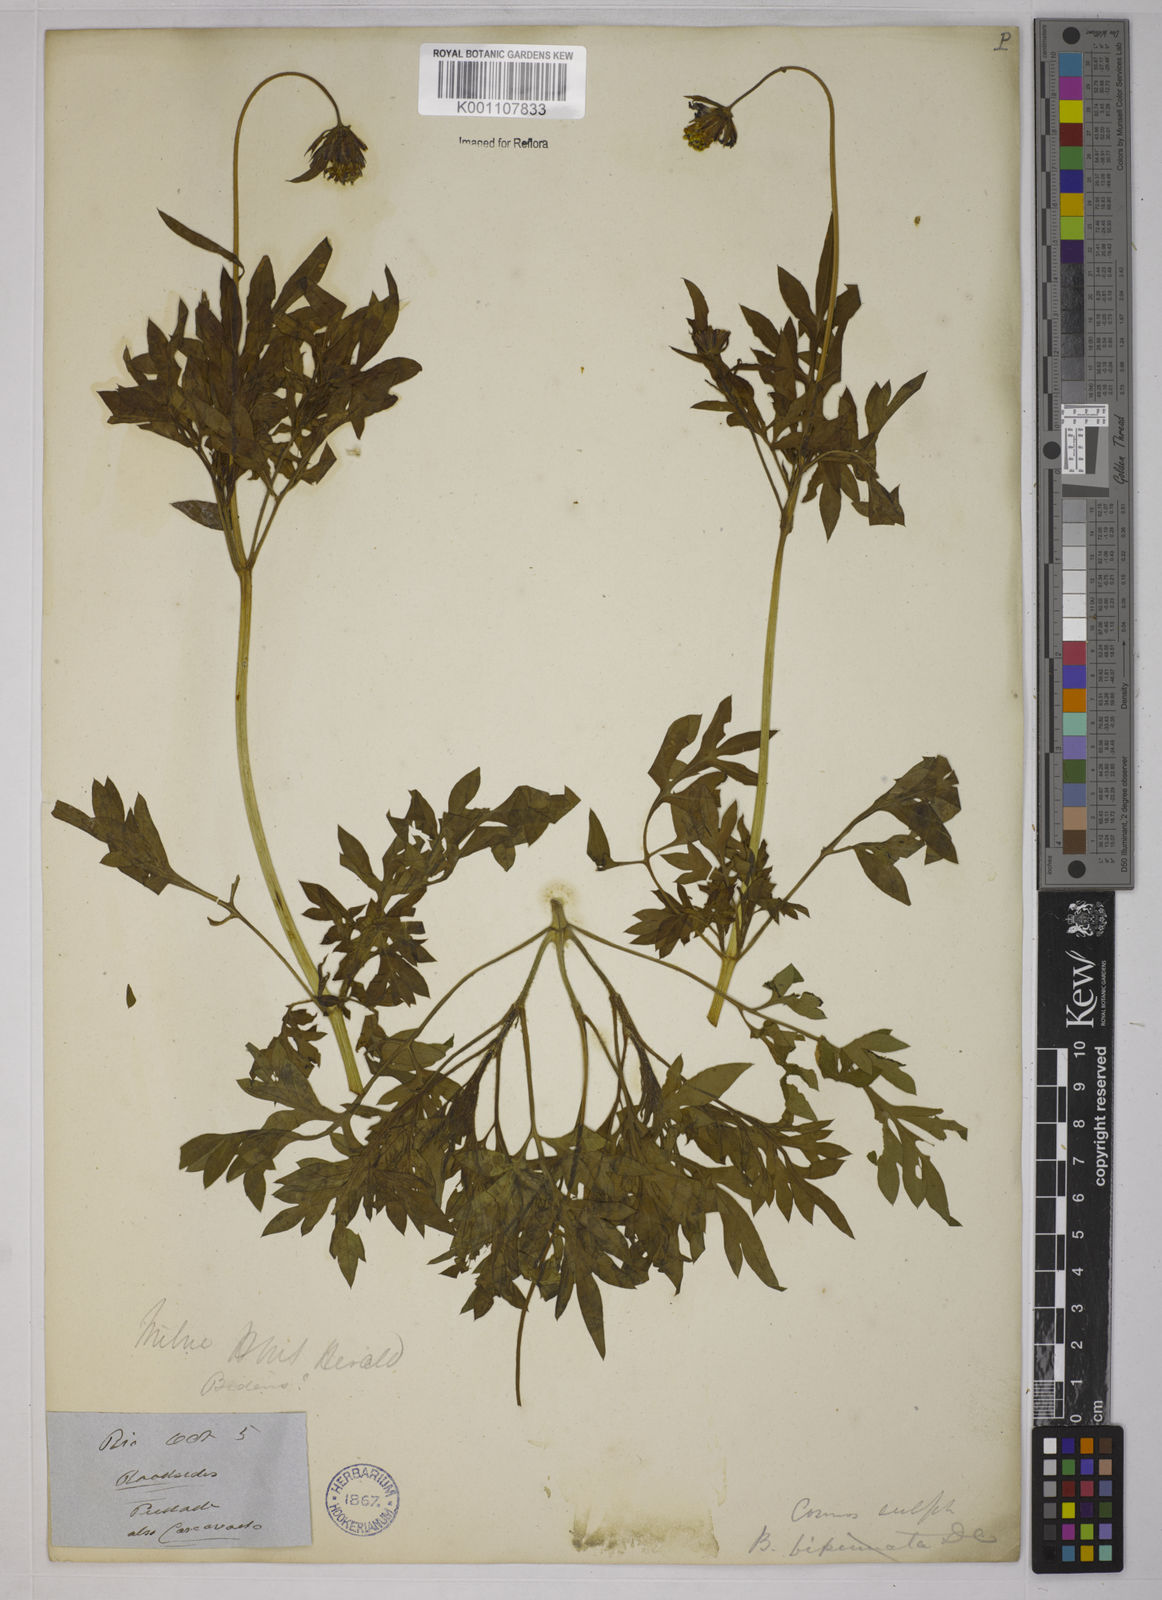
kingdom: Plantae
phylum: Tracheophyta
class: Magnoliopsida
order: Asterales
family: Asteraceae
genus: Cosmos
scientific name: Cosmos caudatus
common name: Wild cosmos
